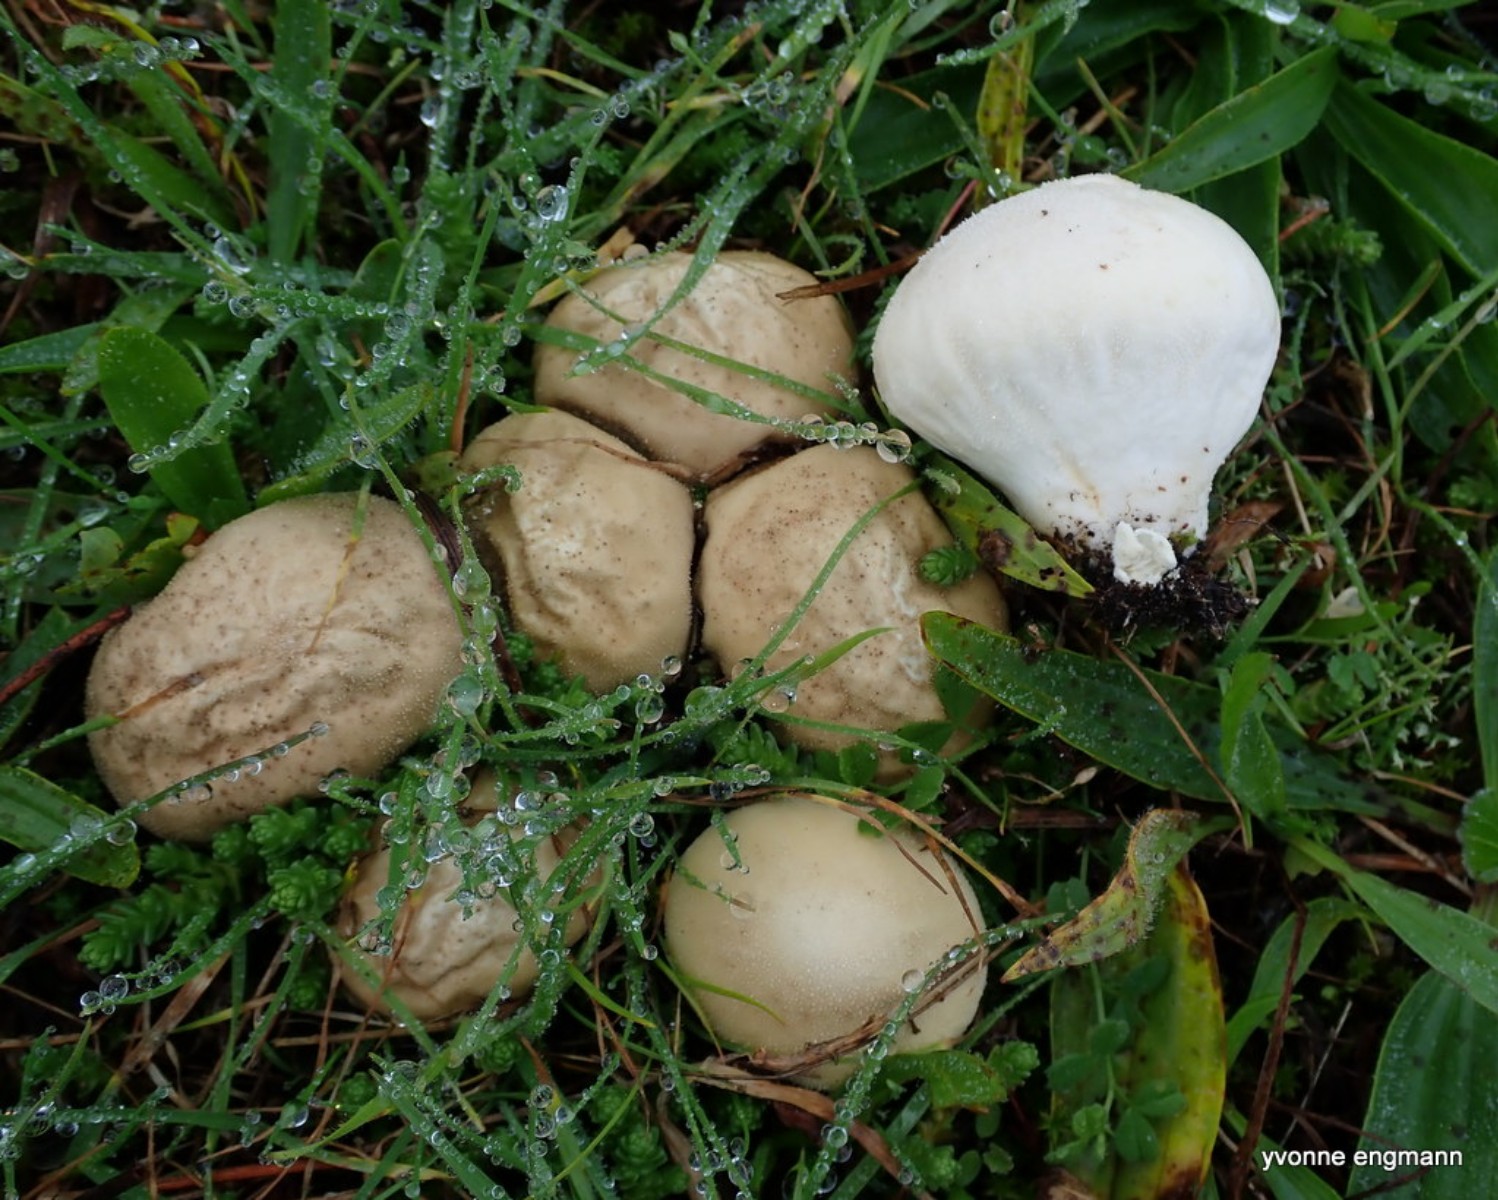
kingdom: Fungi
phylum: Basidiomycota
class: Agaricomycetes
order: Agaricales
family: Lycoperdaceae
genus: Lycoperdon
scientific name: Lycoperdon pratense
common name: flad støvbold
